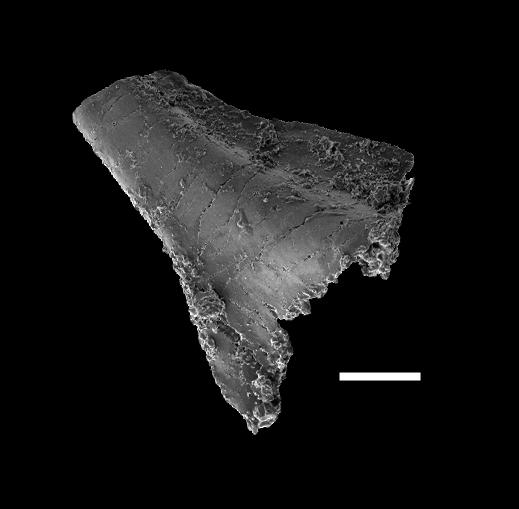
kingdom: Animalia
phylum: Chordata
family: Ansellidae
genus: Hamarodus
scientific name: Hamarodus
